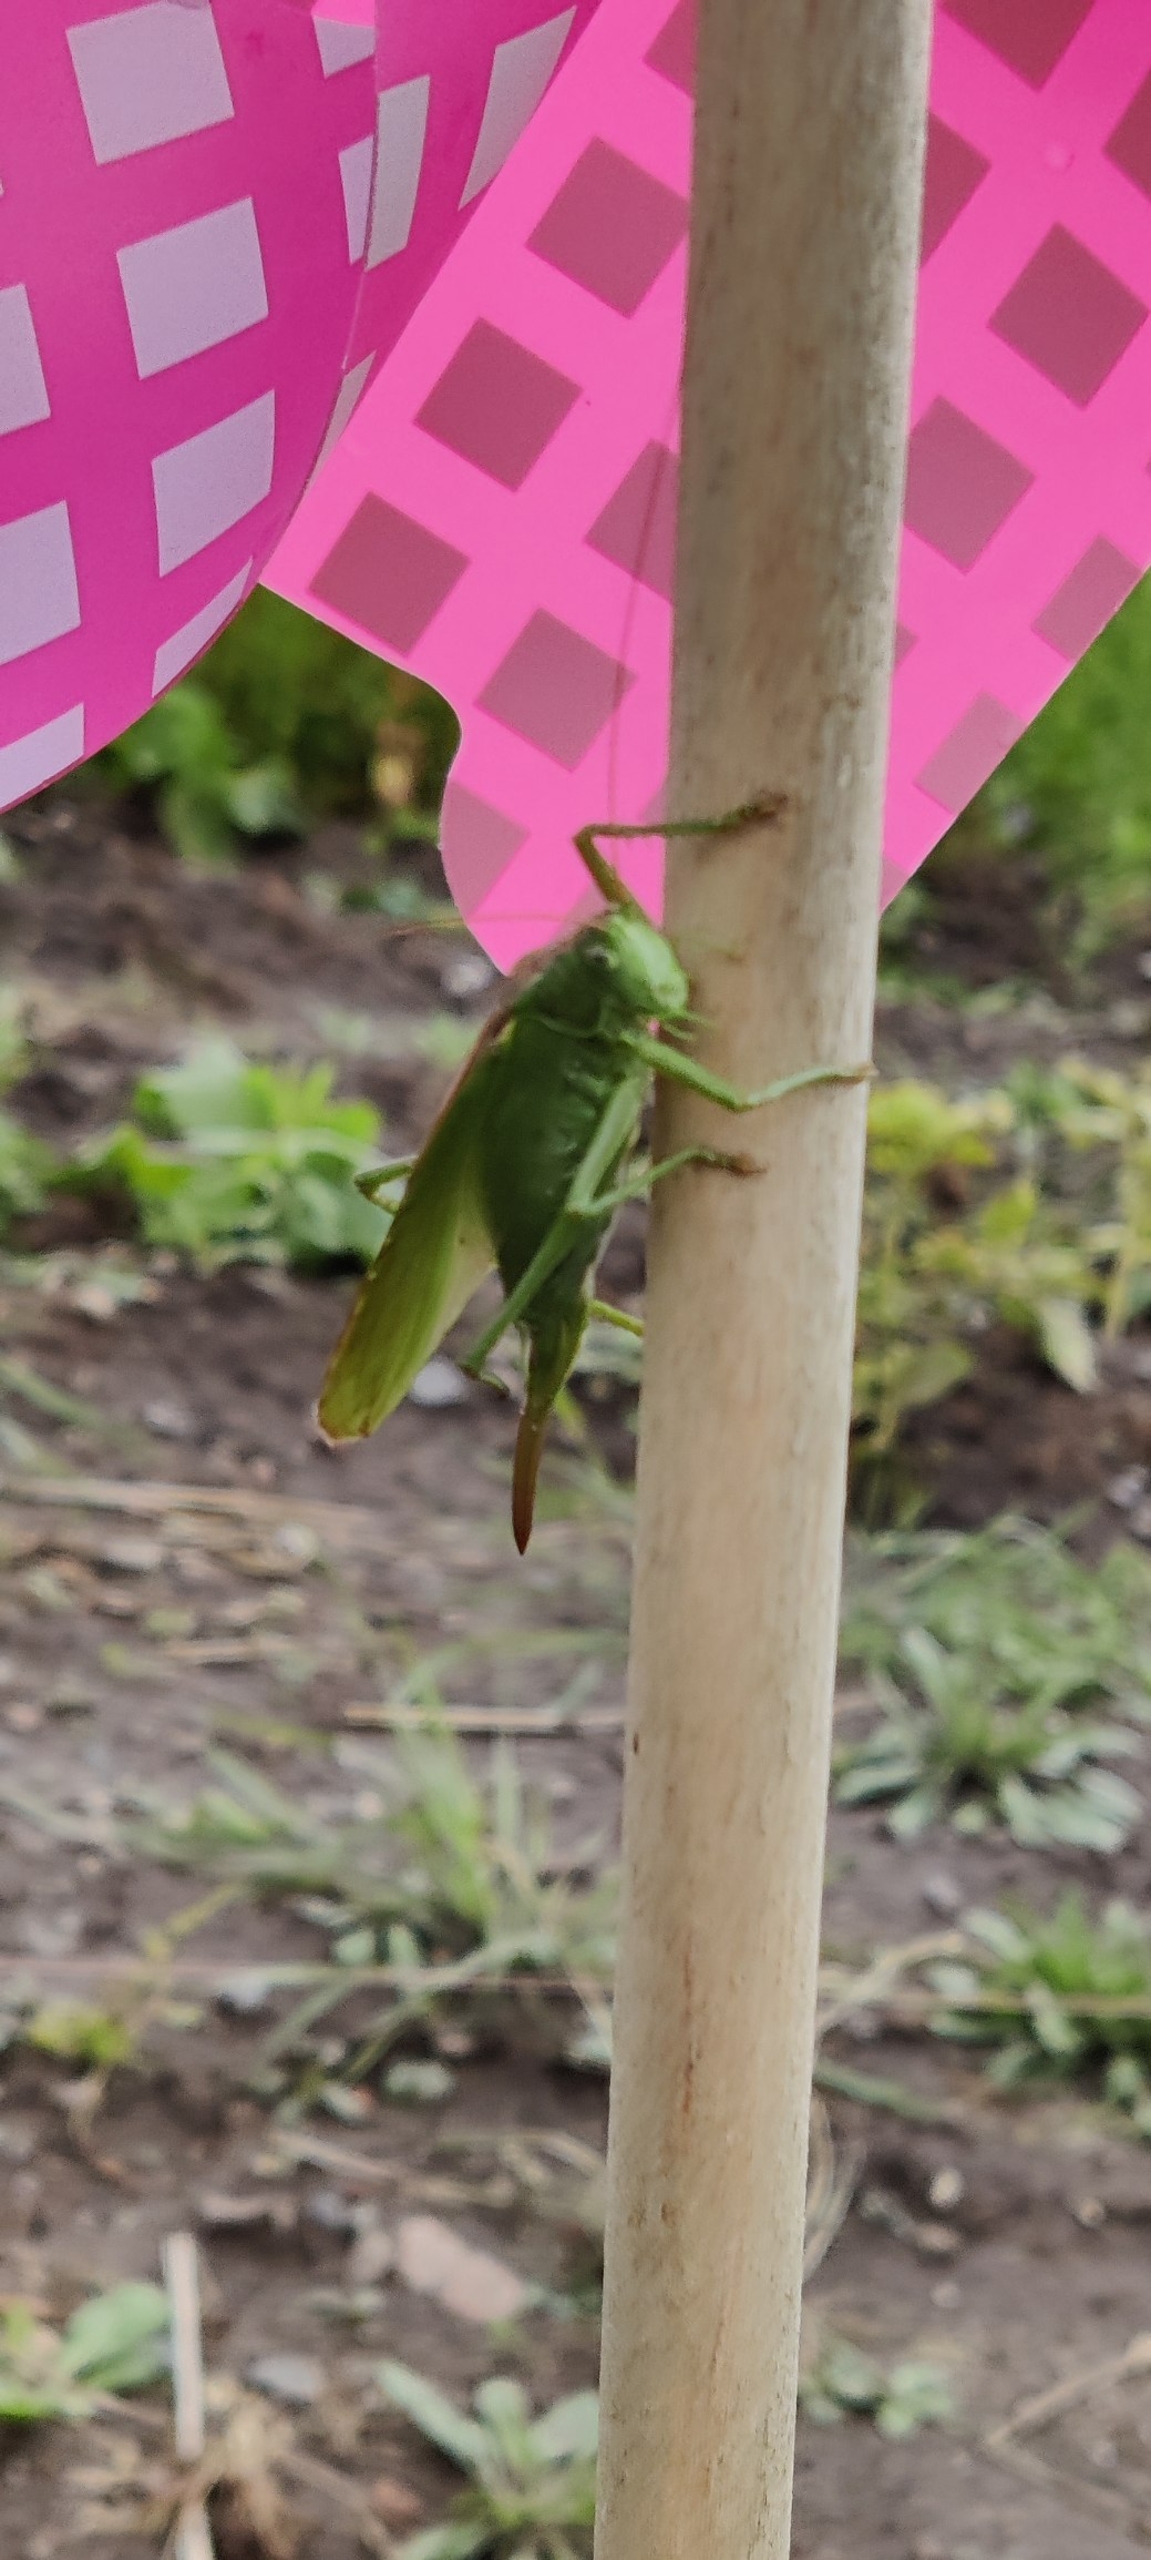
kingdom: Animalia
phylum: Arthropoda
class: Insecta
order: Orthoptera
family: Tettigoniidae
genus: Tettigonia
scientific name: Tettigonia viridissima
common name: Stor grøn løvgræshoppe
